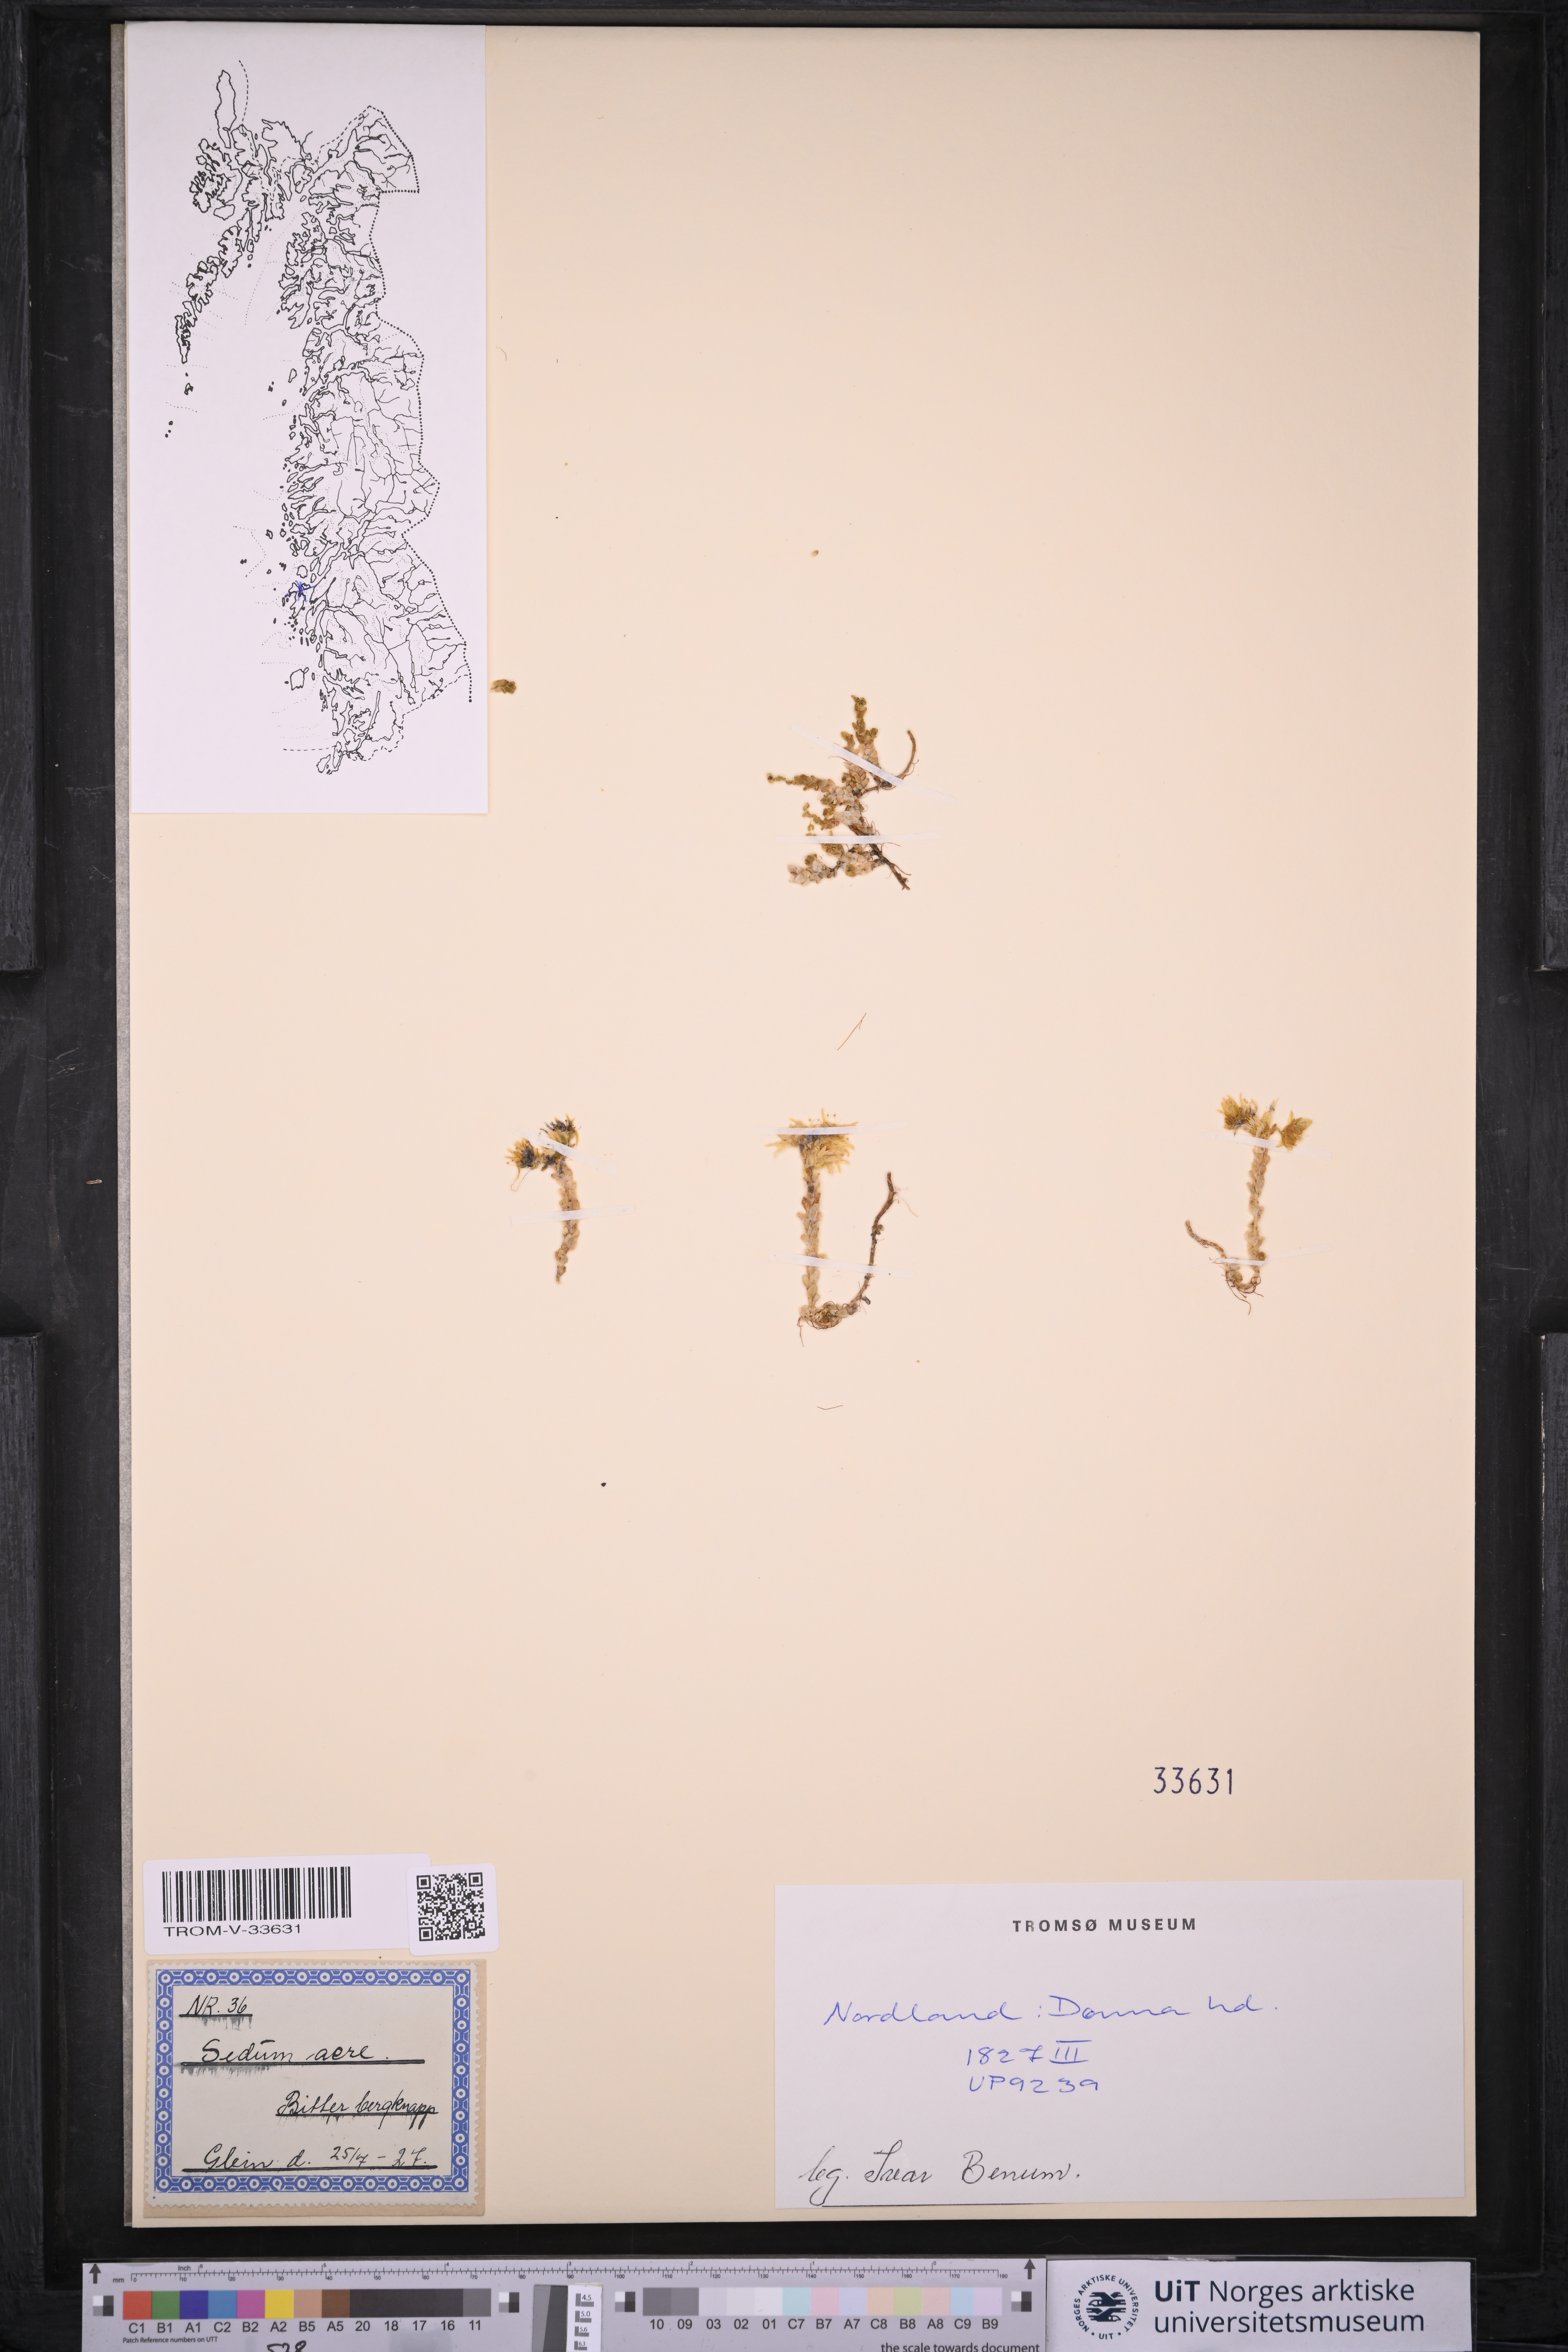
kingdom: Plantae
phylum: Tracheophyta
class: Magnoliopsida
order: Saxifragales
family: Crassulaceae
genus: Sedum
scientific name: Sedum acre
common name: Biting stonecrop
